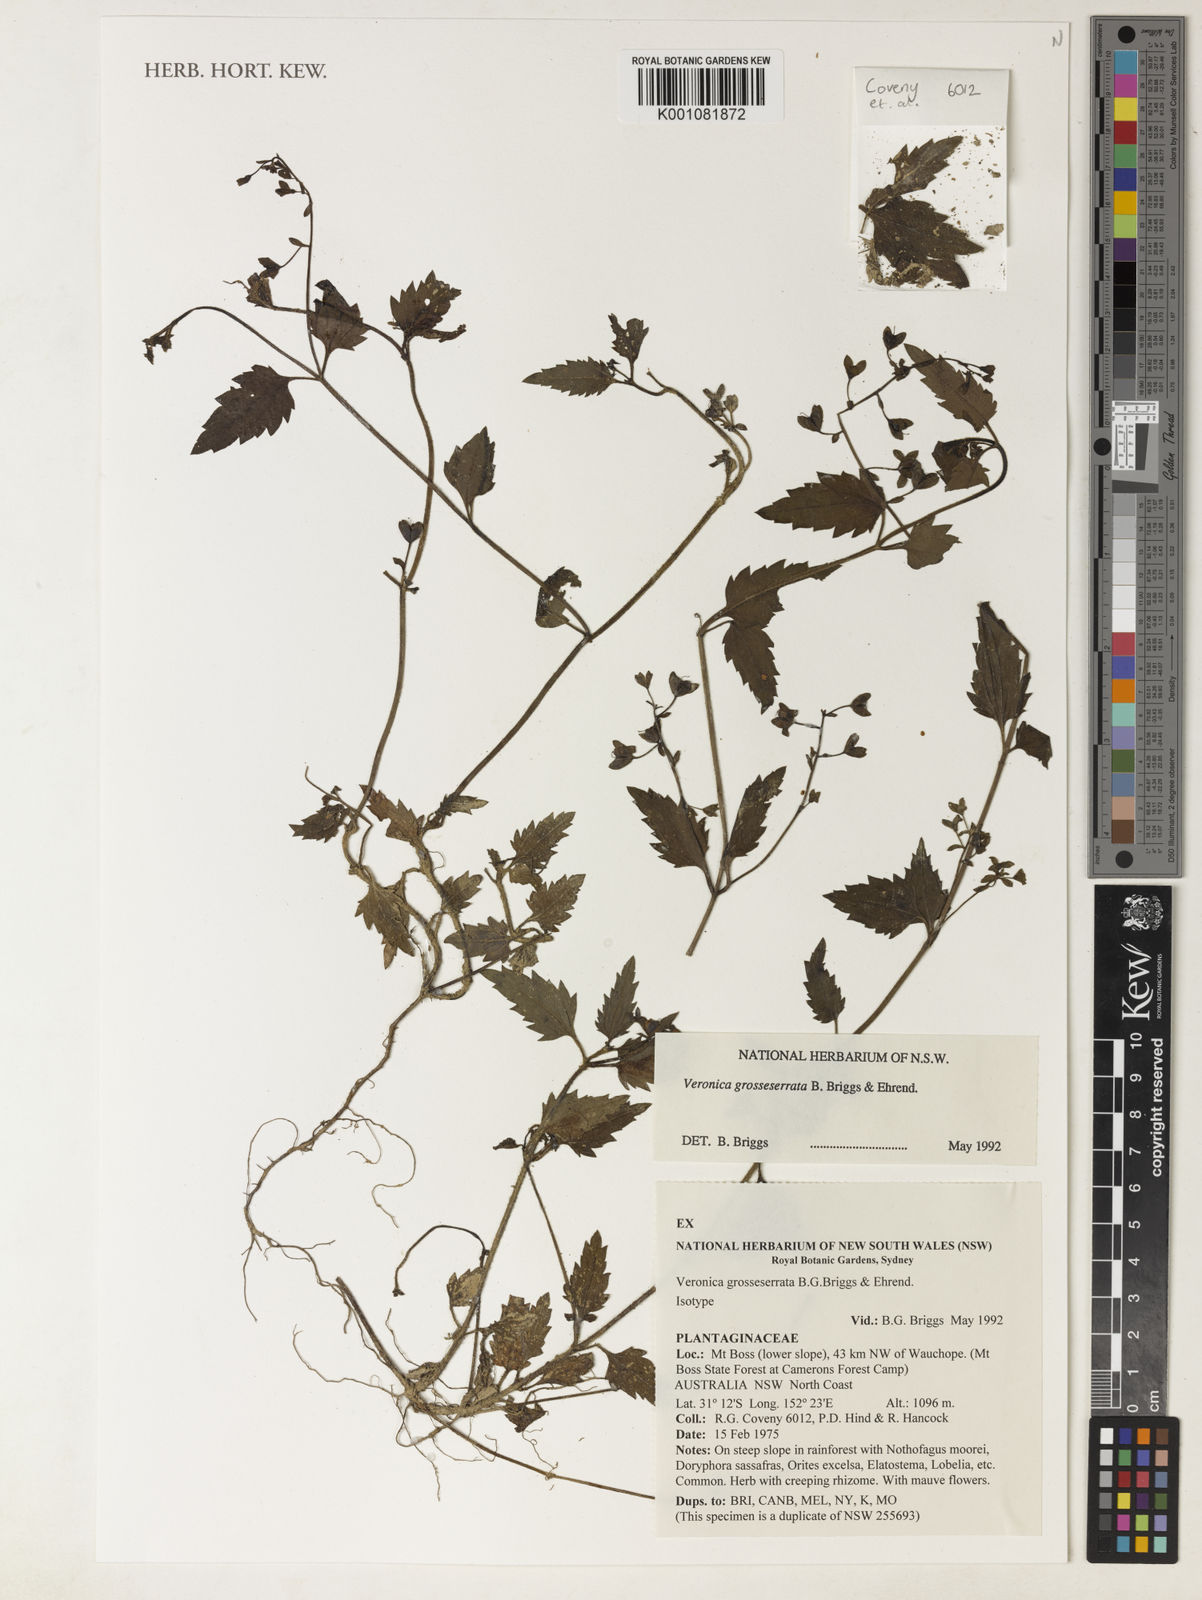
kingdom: Plantae
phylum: Tracheophyta
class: Magnoliopsida
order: Lamiales
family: Plantaginaceae
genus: Veronica
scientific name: Veronica grosseserrata
